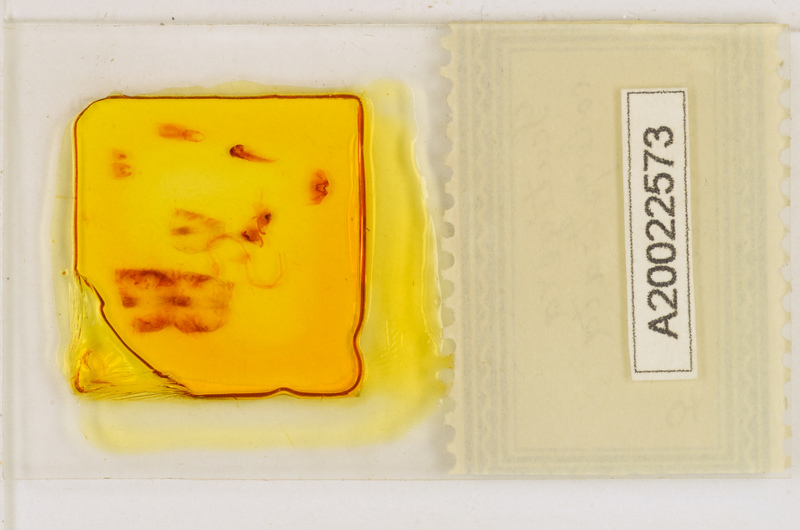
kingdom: Animalia
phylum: Arthropoda
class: Chilopoda
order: Scutigeromorpha
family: Scutigeridae
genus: Scutigera
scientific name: Scutigera coleoptrata
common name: House centipede
